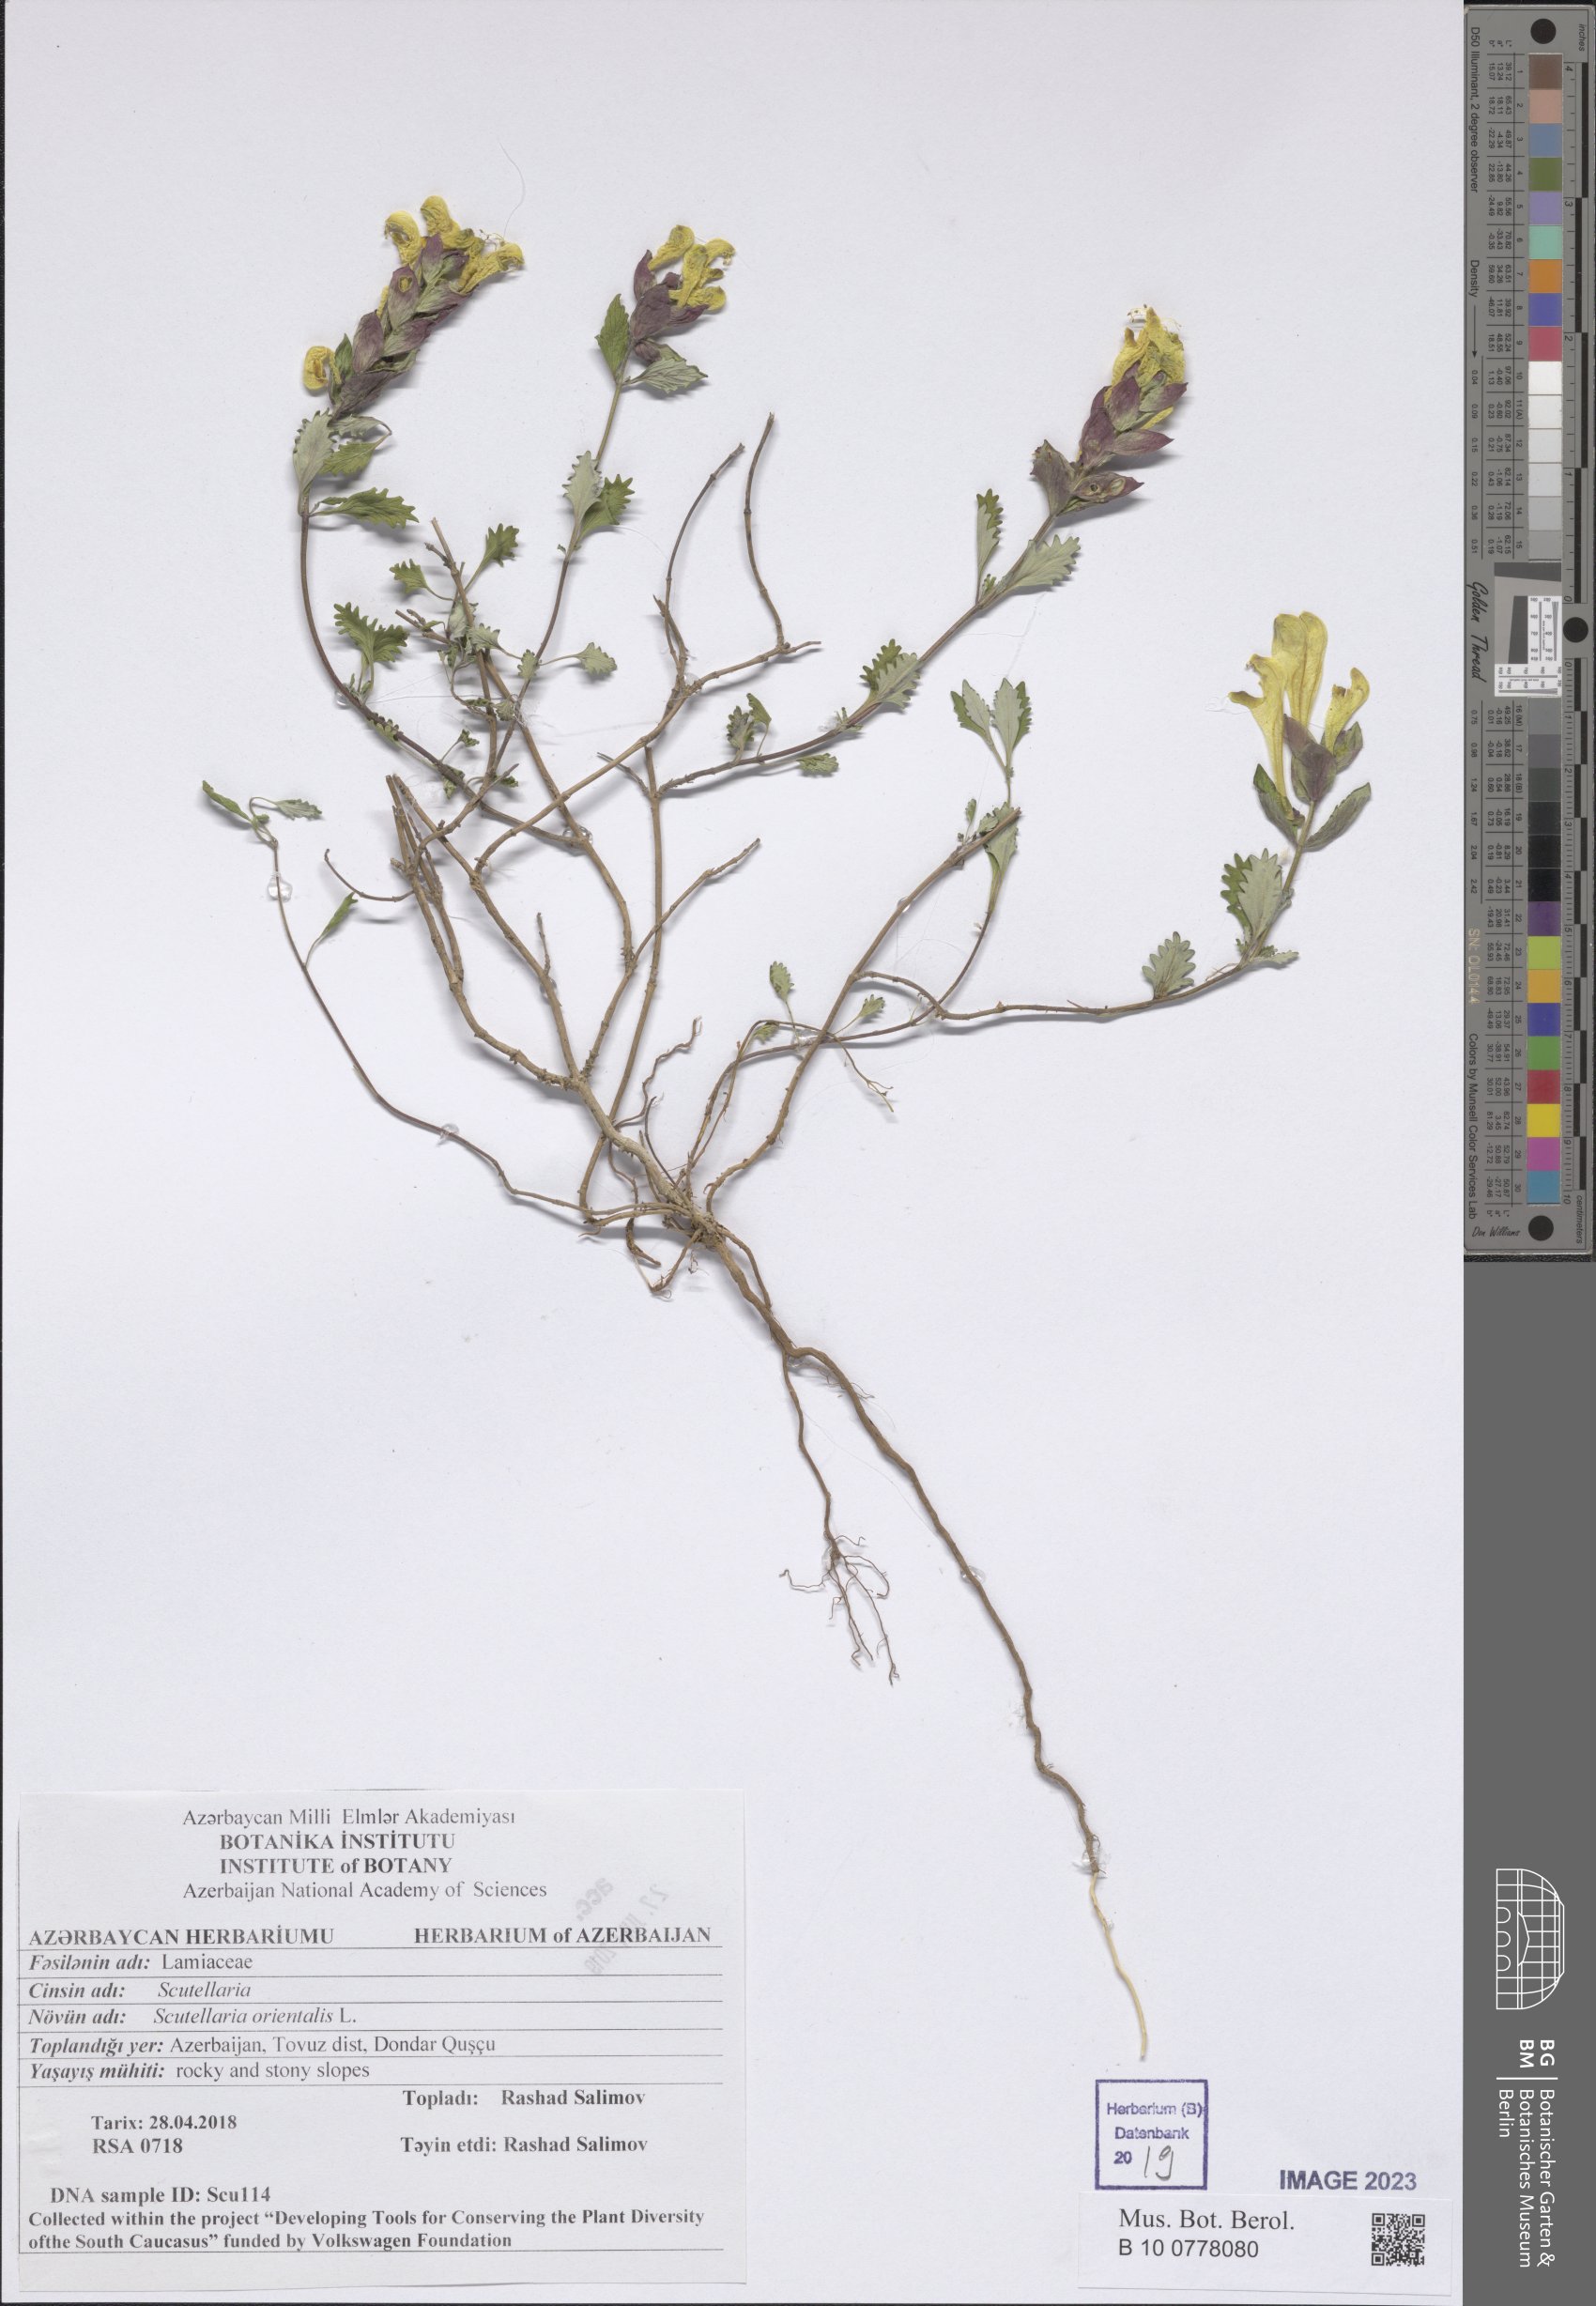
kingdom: Plantae
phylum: Tracheophyta
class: Magnoliopsida
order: Lamiales
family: Lamiaceae
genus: Scutellaria
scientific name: Scutellaria orientalis
